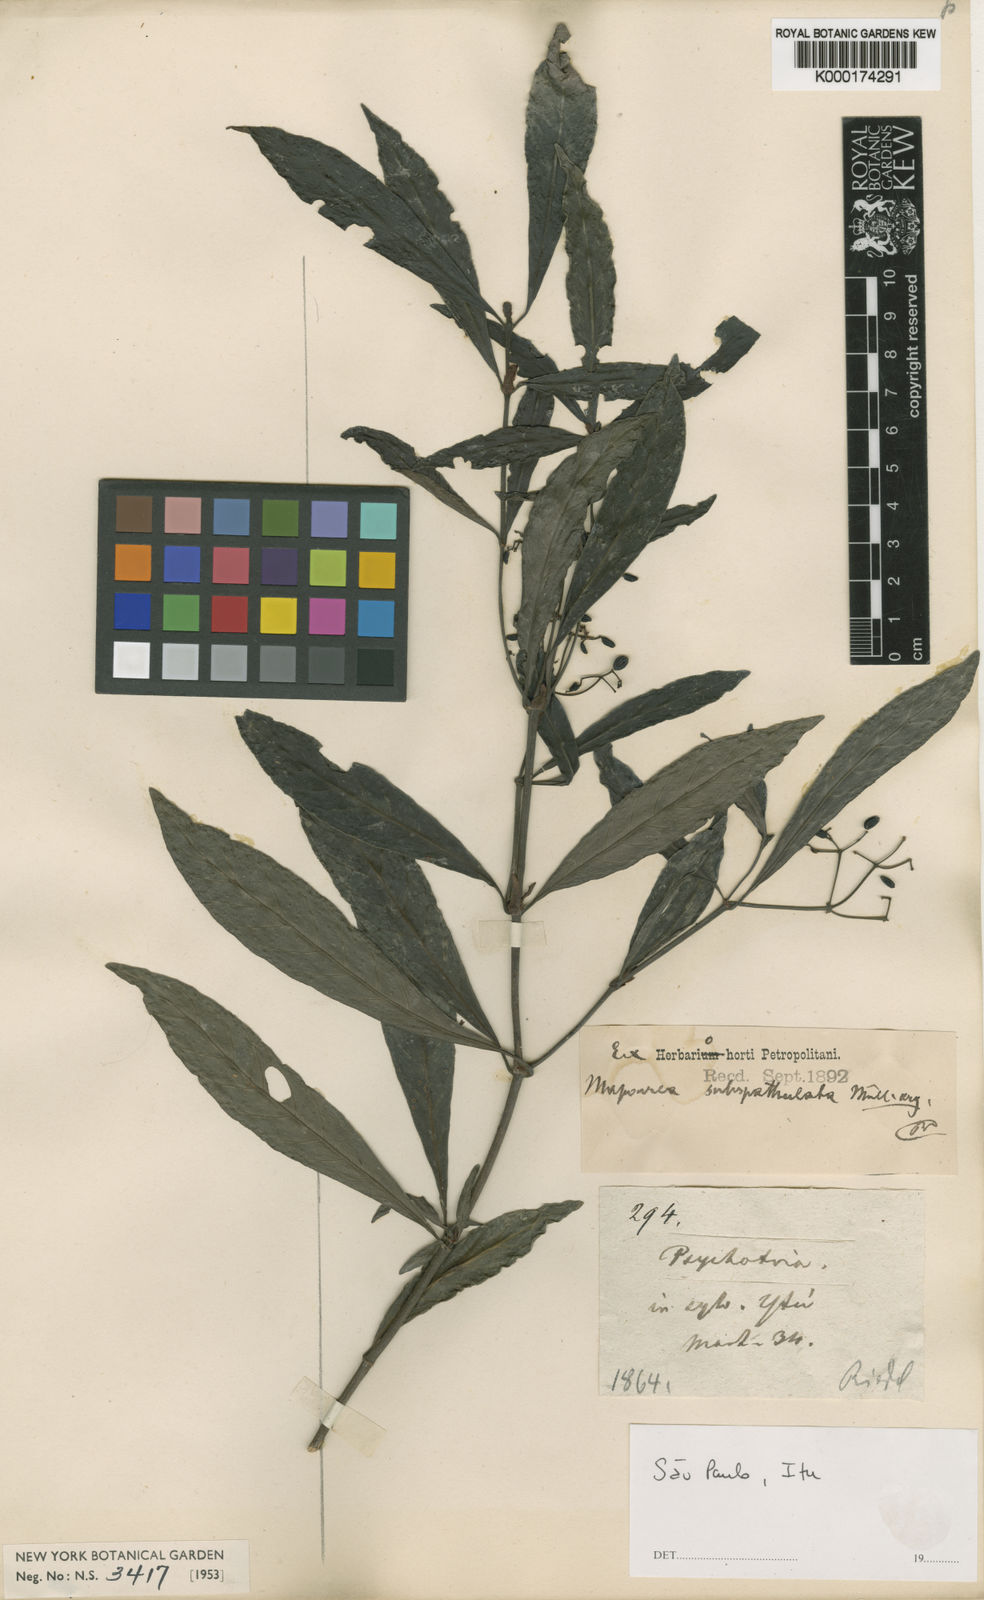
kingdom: Plantae
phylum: Tracheophyta
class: Magnoliopsida
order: Gentianales
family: Rubiaceae
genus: Psychotria
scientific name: Psychotria
